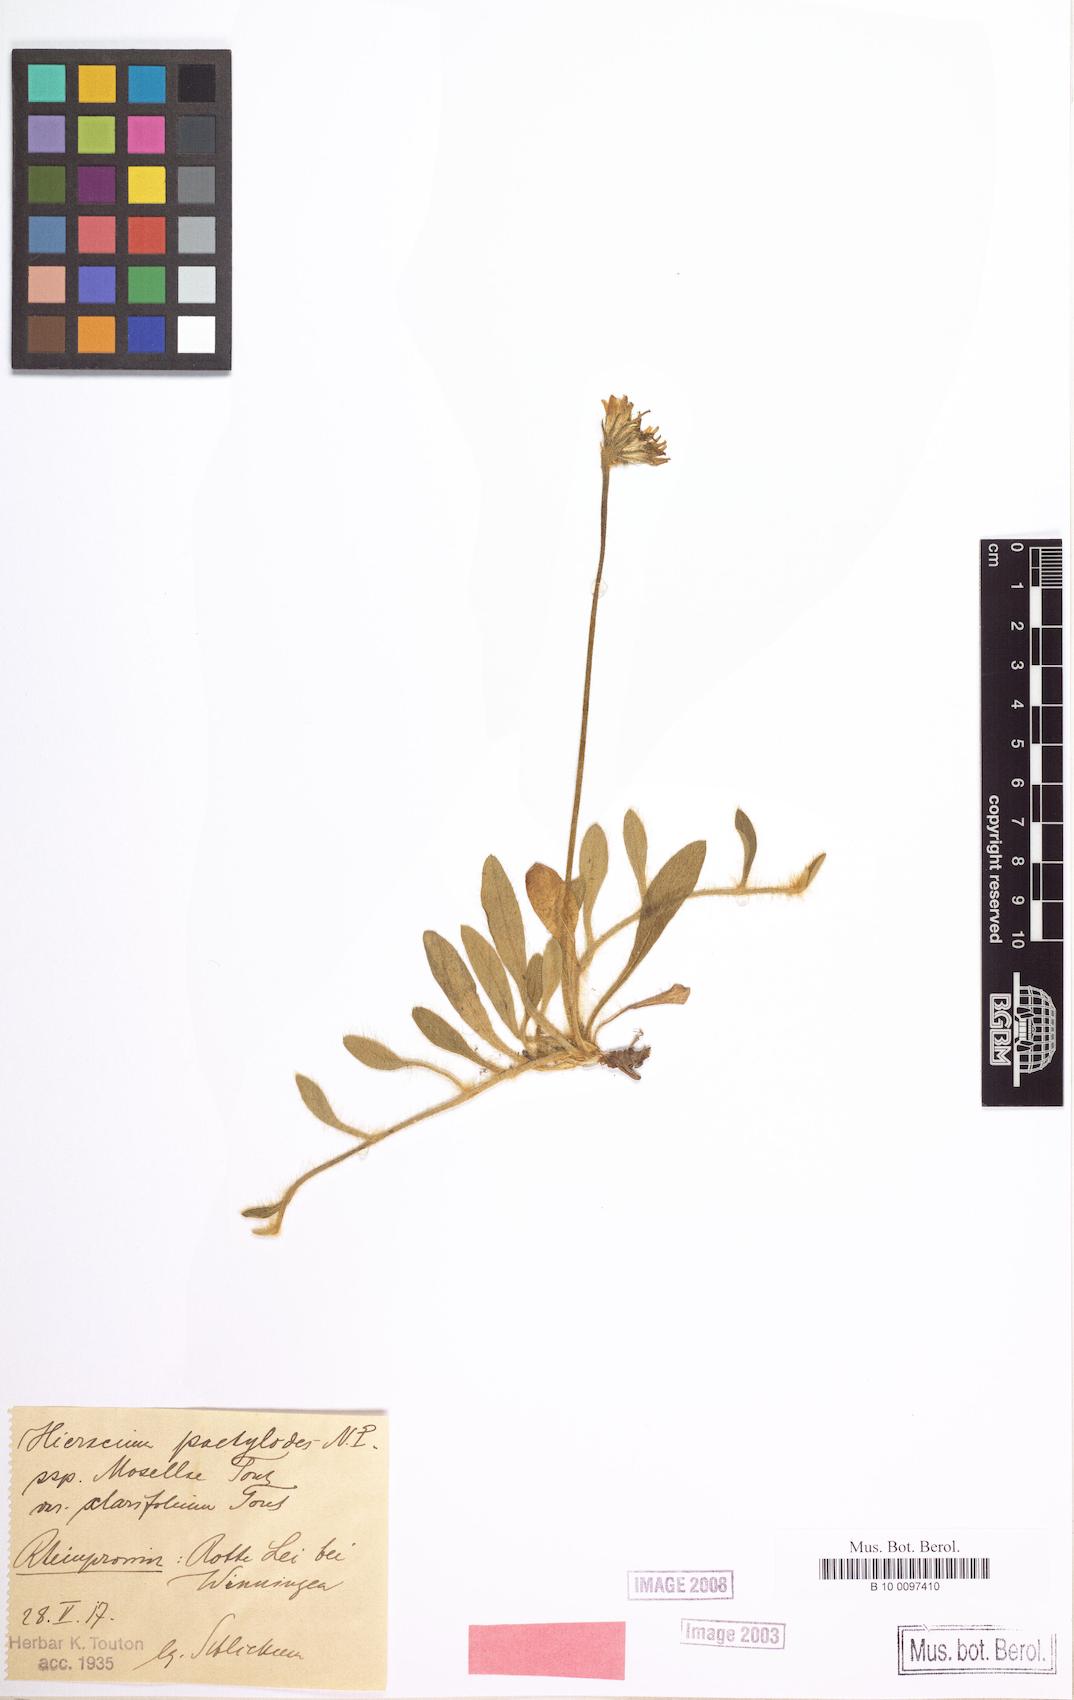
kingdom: Plantae
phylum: Tracheophyta
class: Magnoliopsida
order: Asterales
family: Asteraceae
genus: Pilosella
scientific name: Pilosella longisquama
